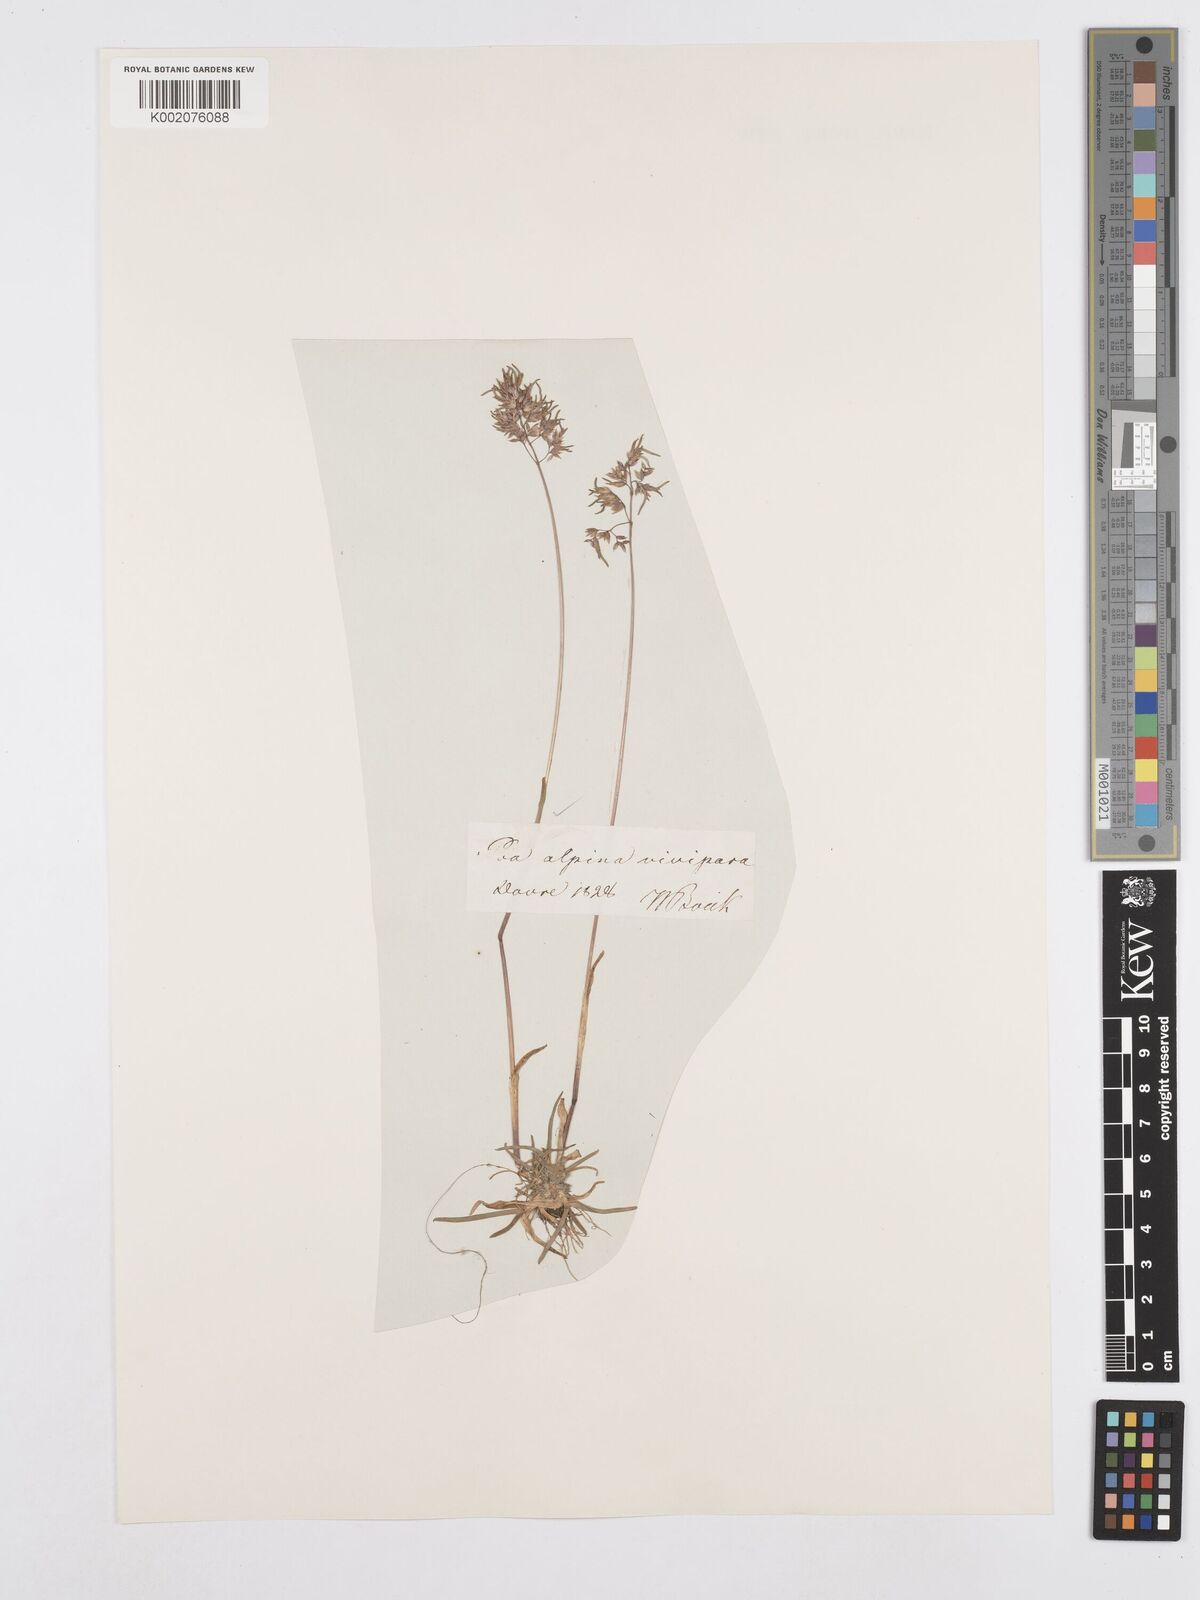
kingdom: Plantae
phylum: Tracheophyta
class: Liliopsida
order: Poales
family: Poaceae
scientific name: Poaceae
